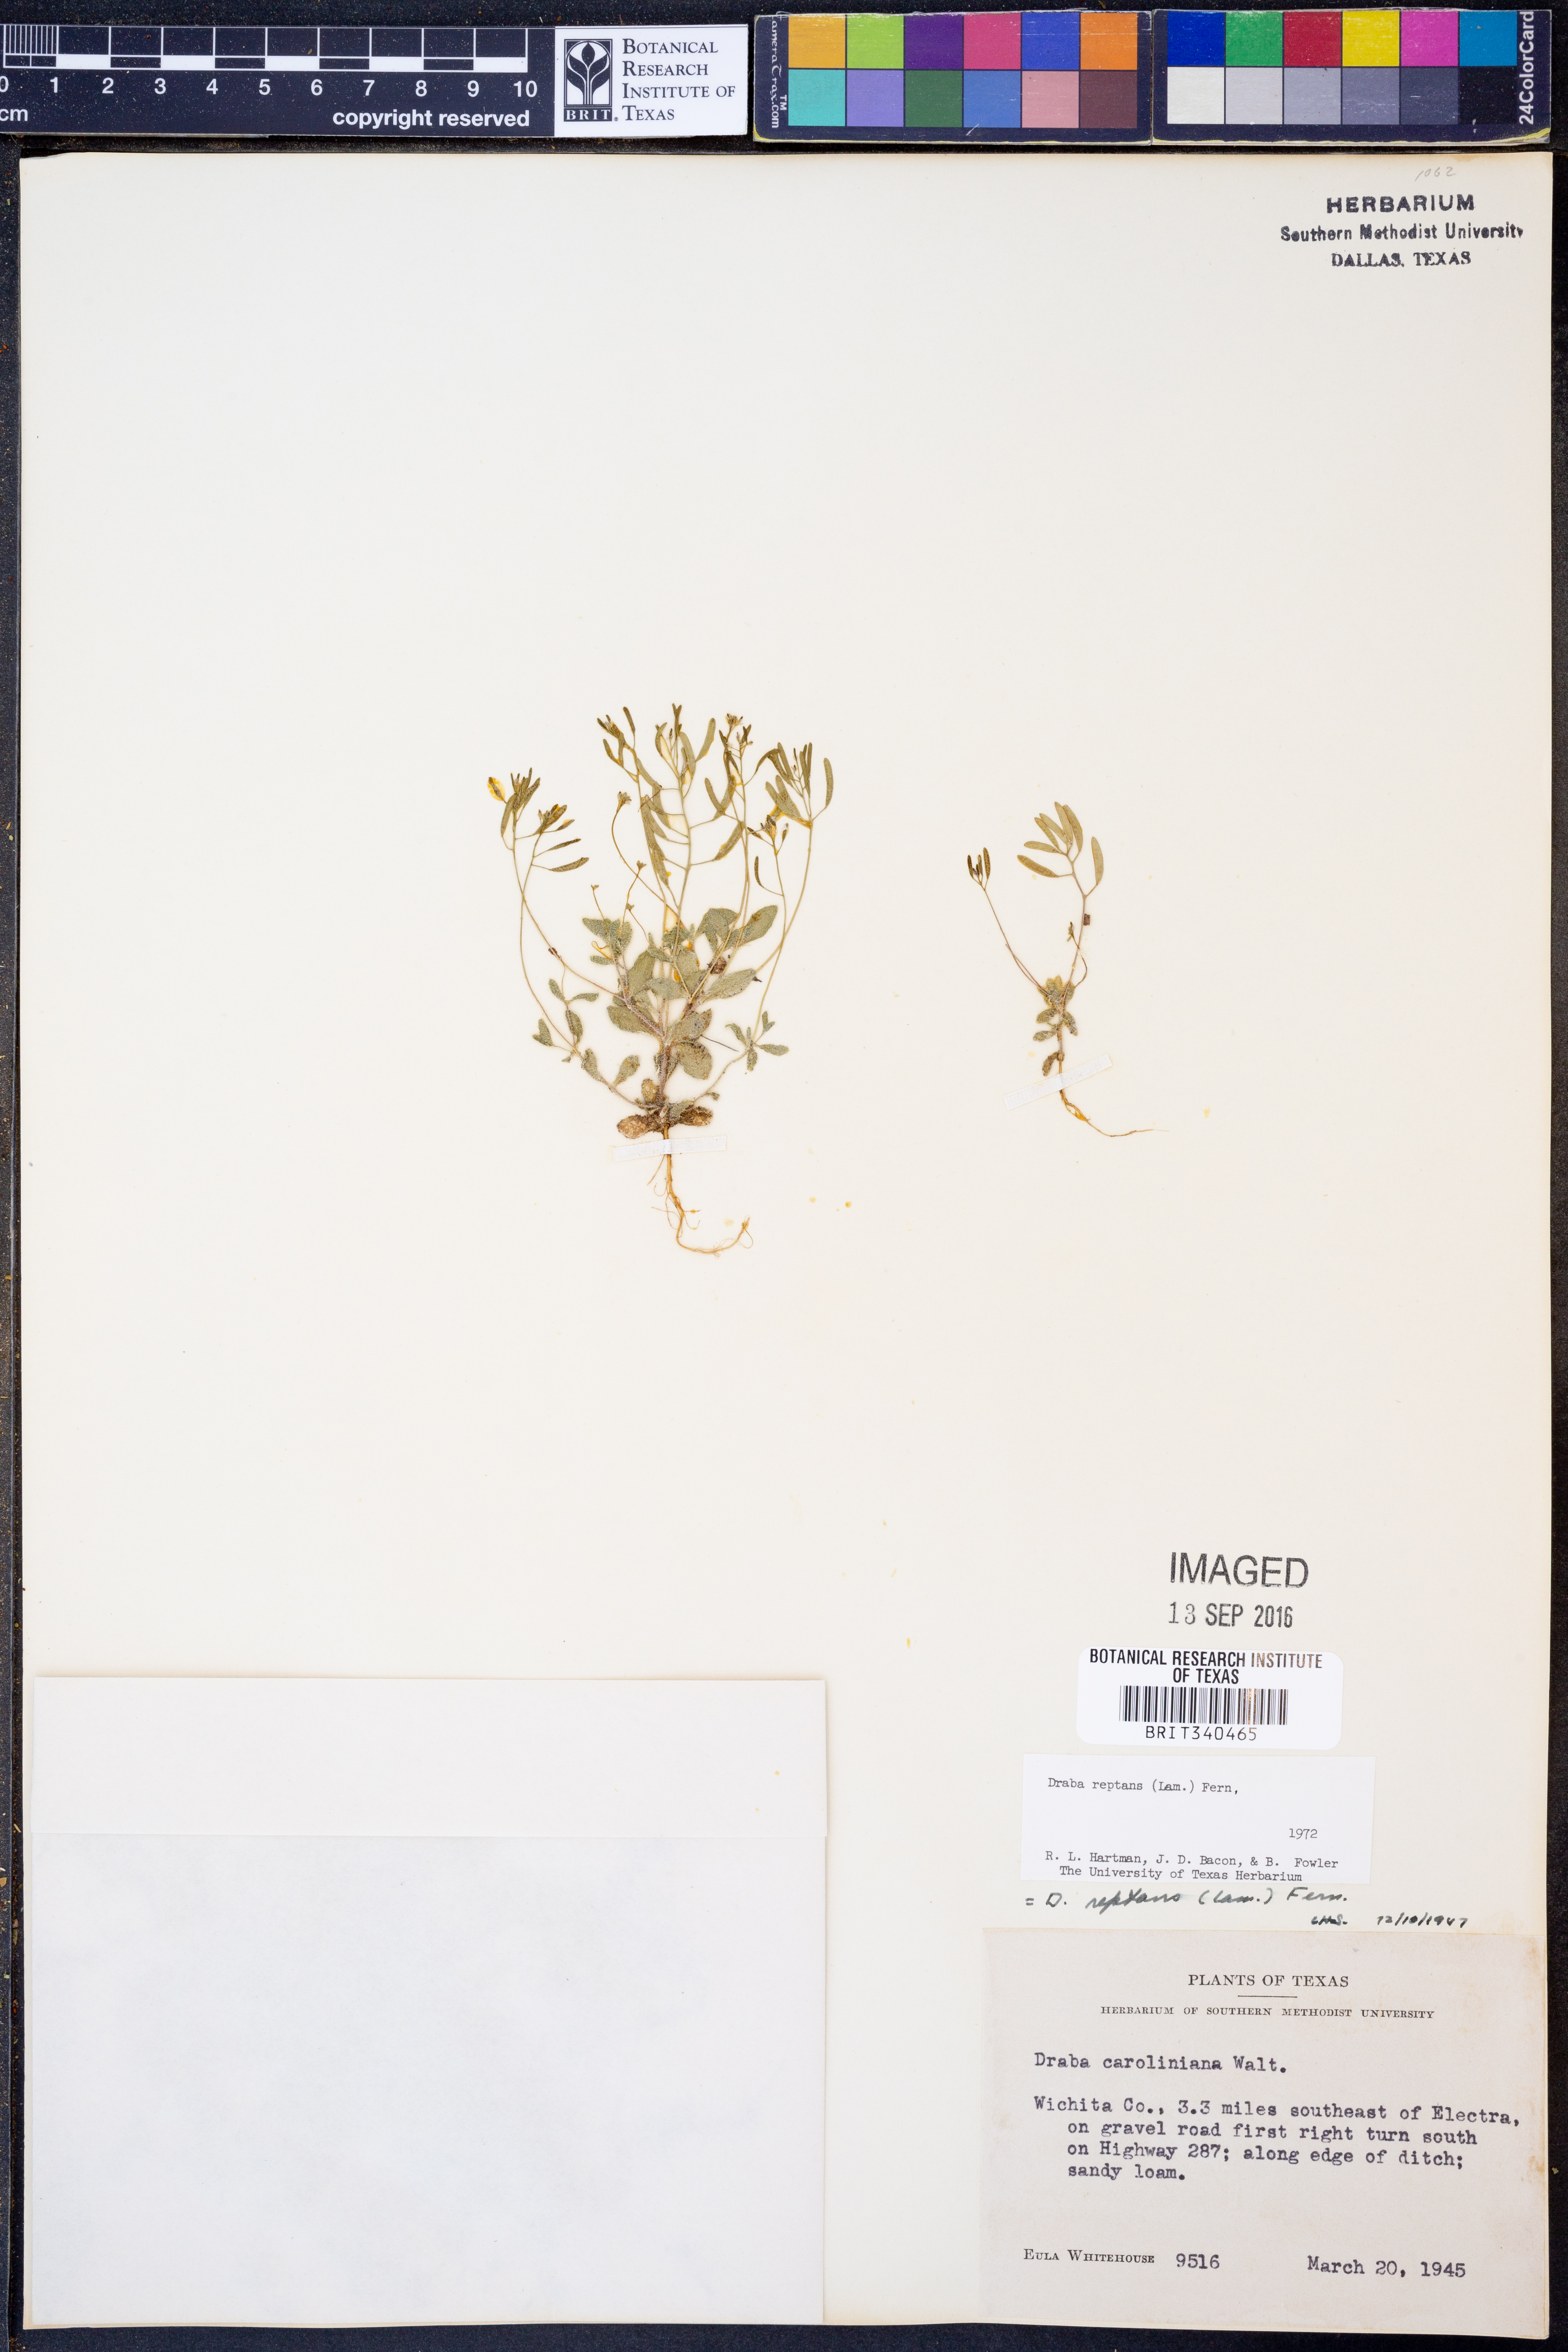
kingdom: Plantae
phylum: Tracheophyta
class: Magnoliopsida
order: Brassicales
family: Brassicaceae
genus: Tomostima
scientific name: Tomostima reptans
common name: Carolina draba
